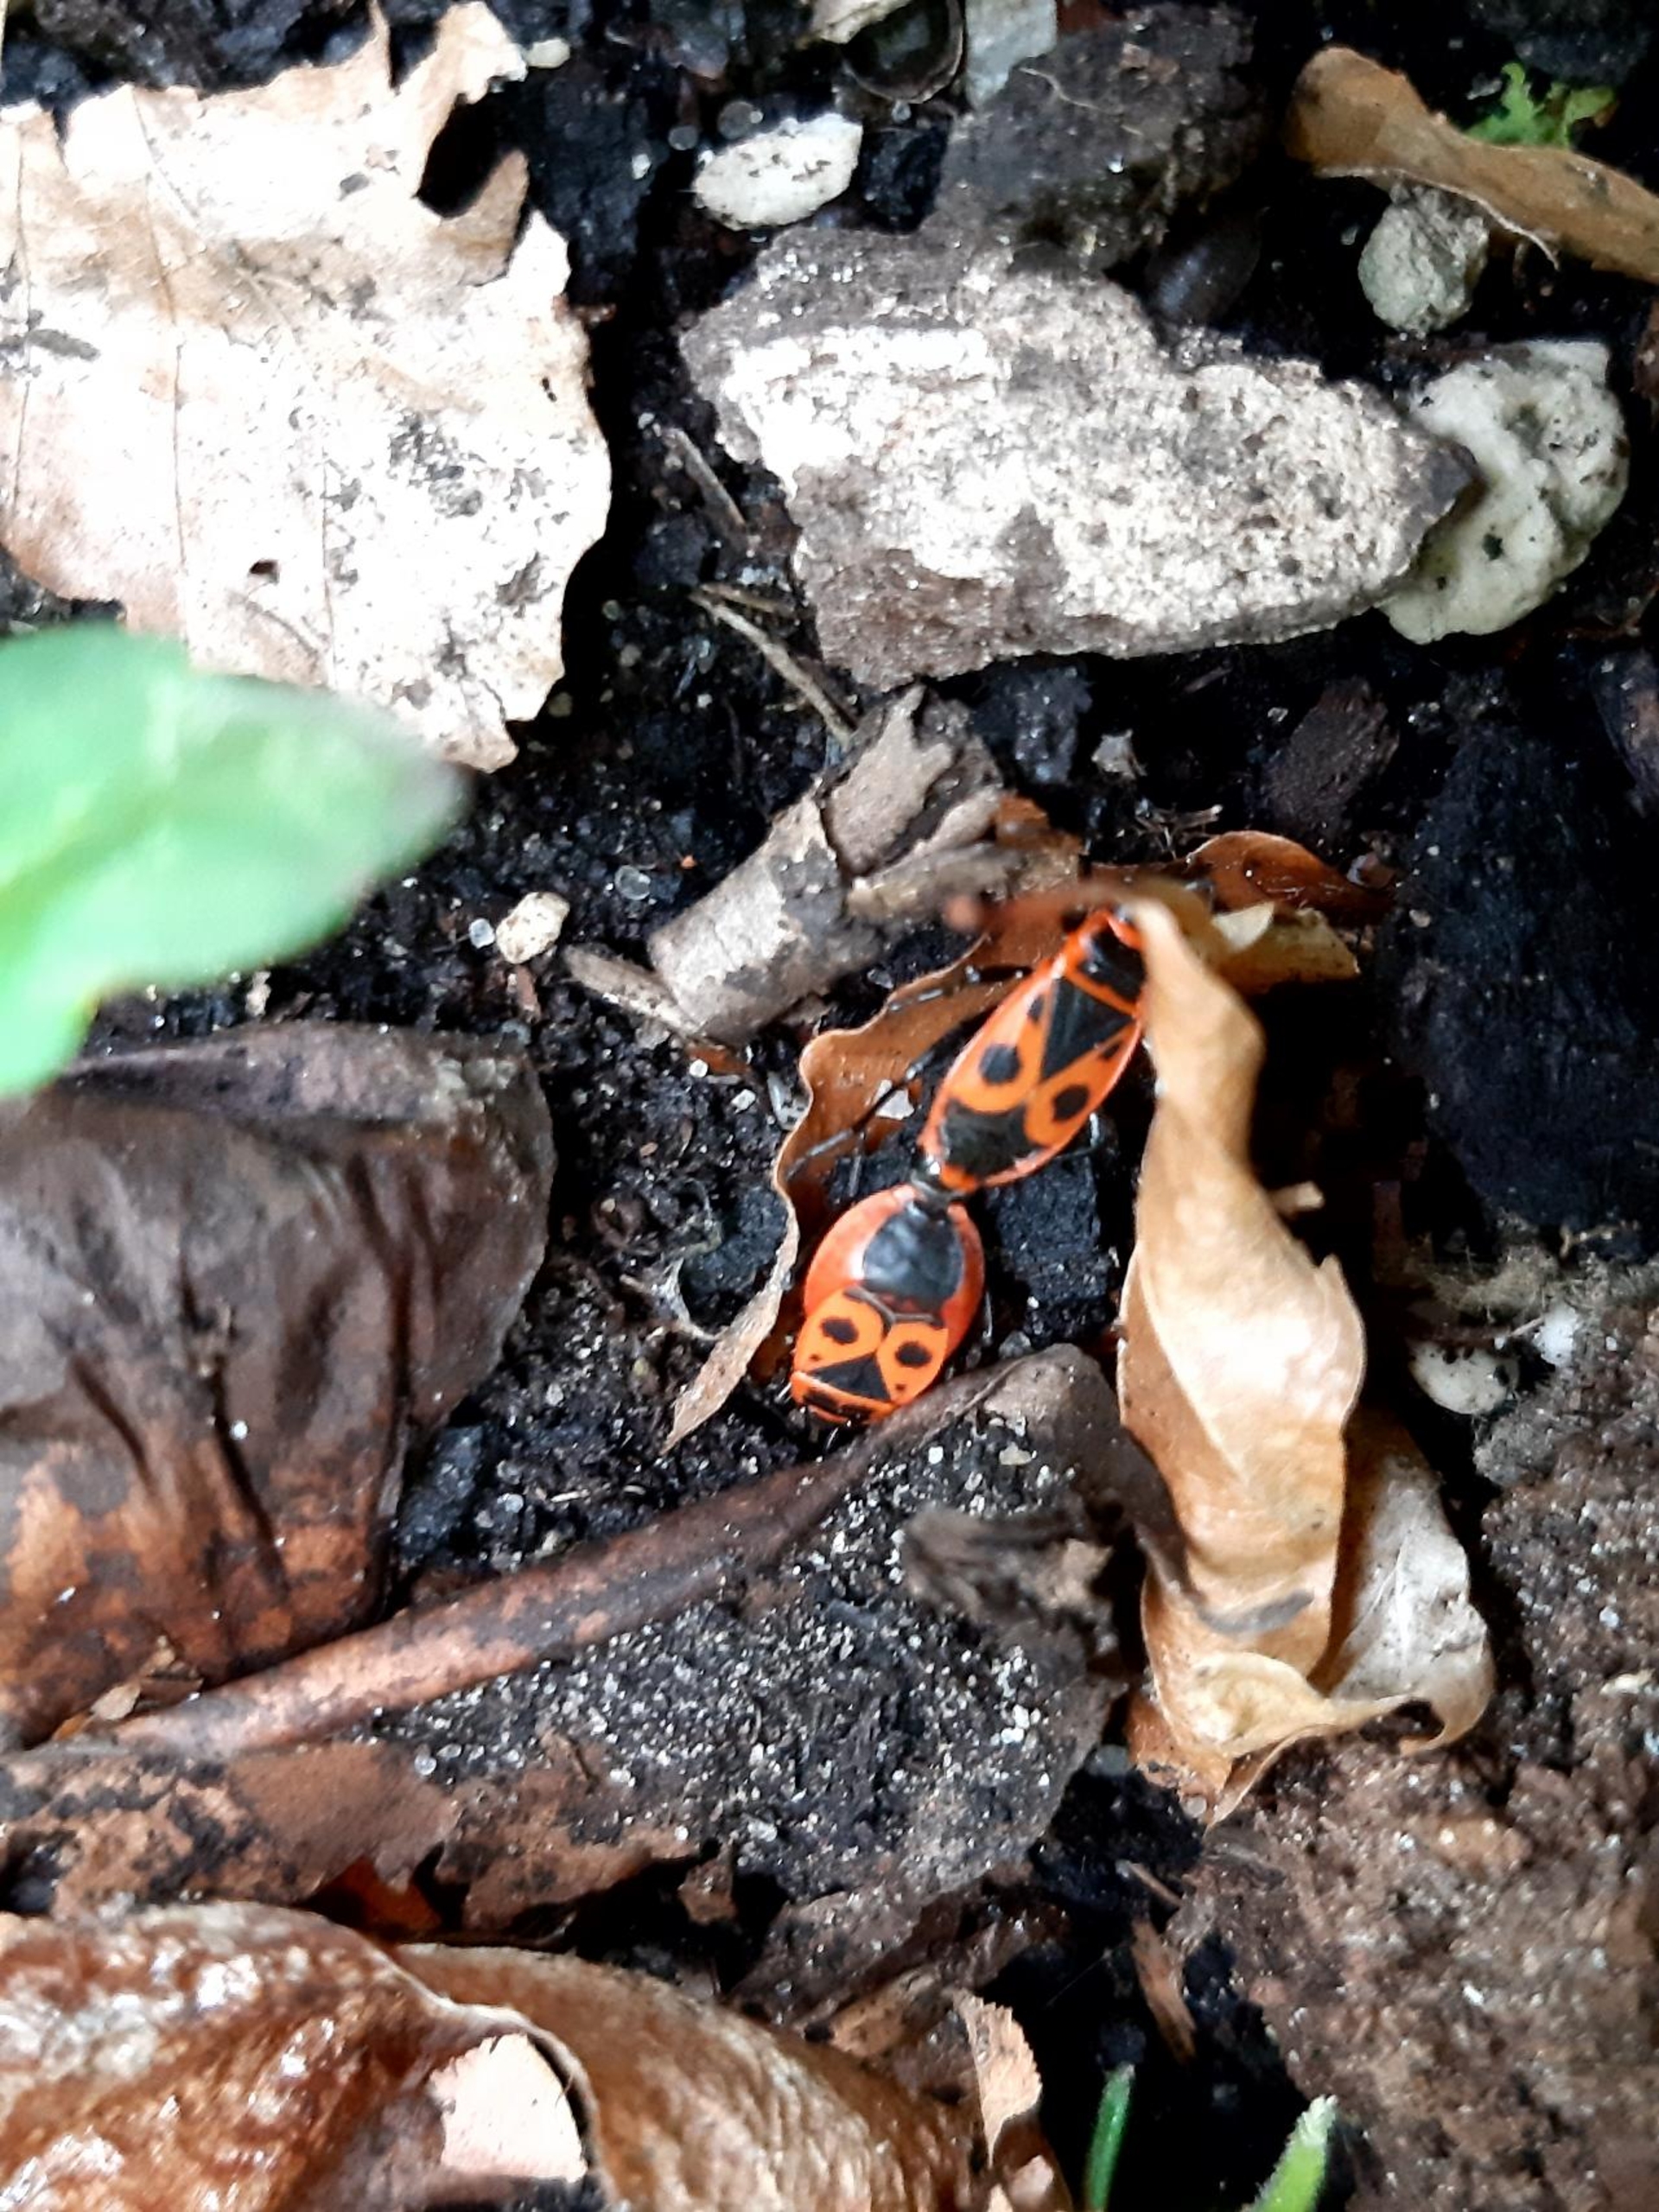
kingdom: Animalia
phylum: Arthropoda
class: Insecta
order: Hemiptera
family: Pyrrhocoridae
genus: Pyrrhocoris
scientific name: Pyrrhocoris apterus
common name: Ildtæge
